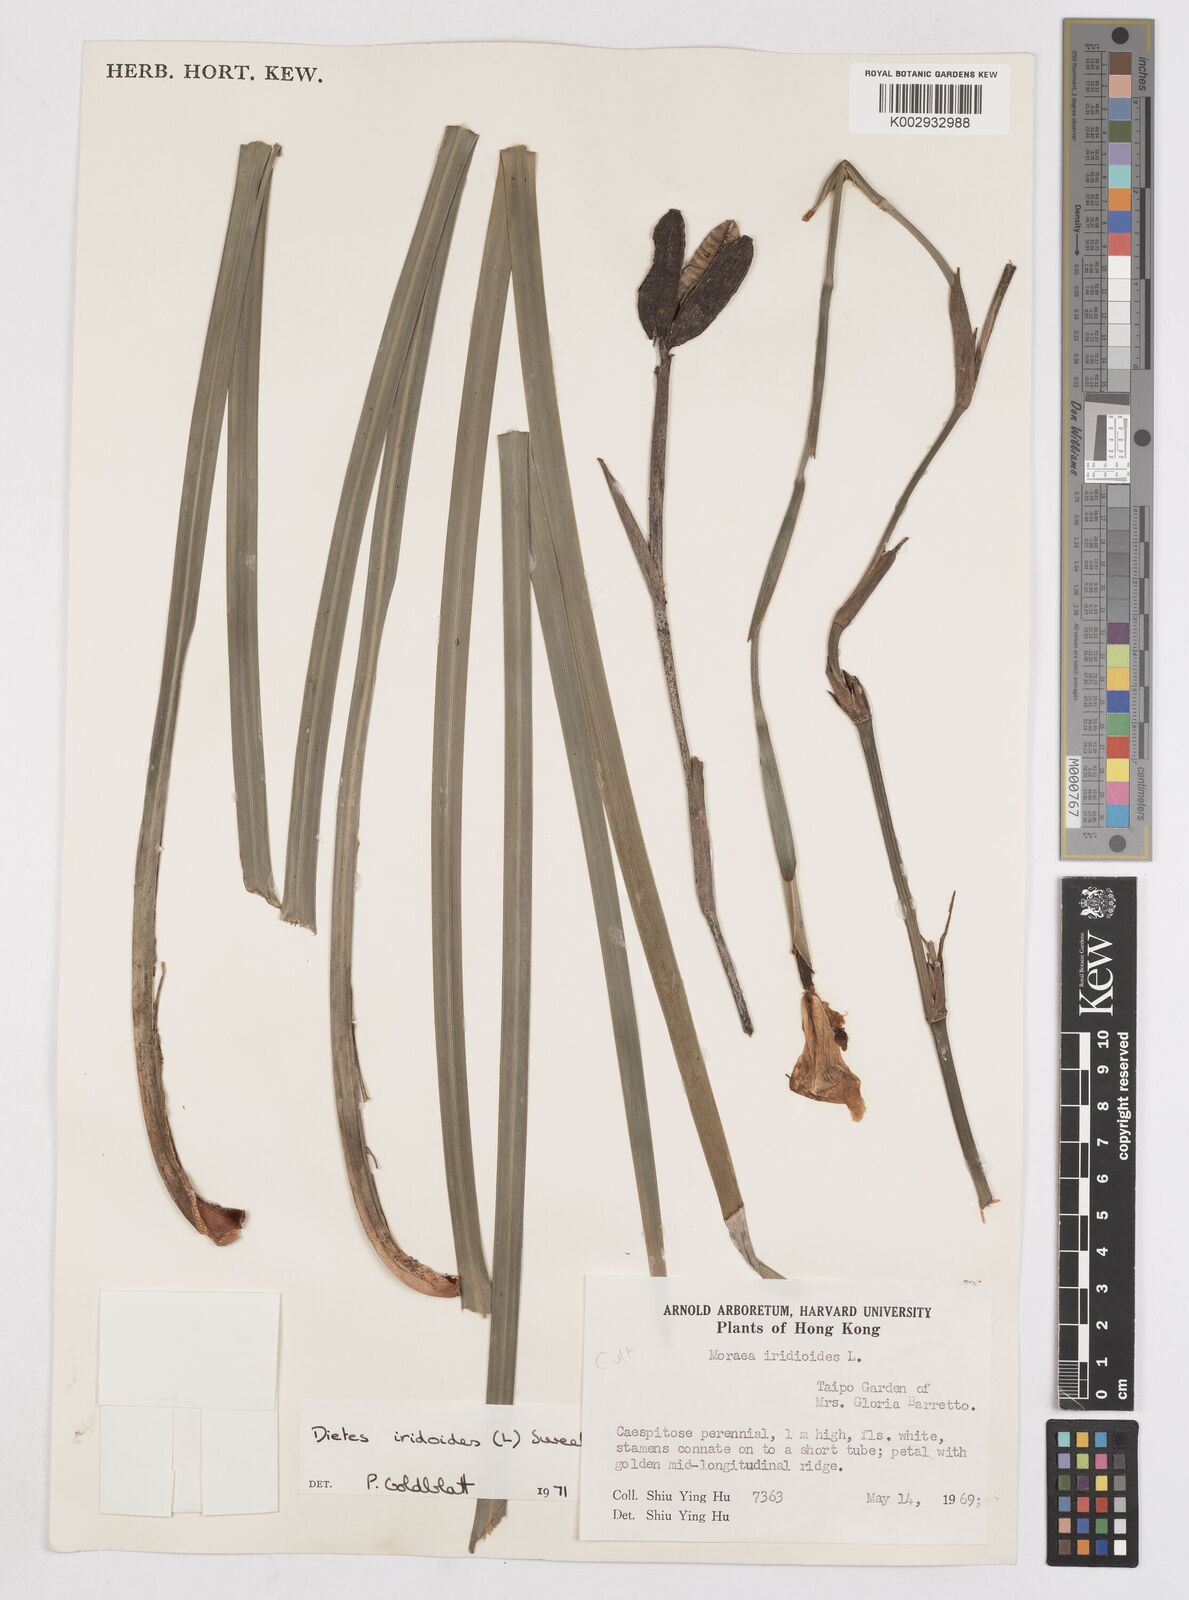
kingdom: Plantae
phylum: Tracheophyta
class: Liliopsida
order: Asparagales
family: Iridaceae
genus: Dietes
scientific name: Dietes iridioides
